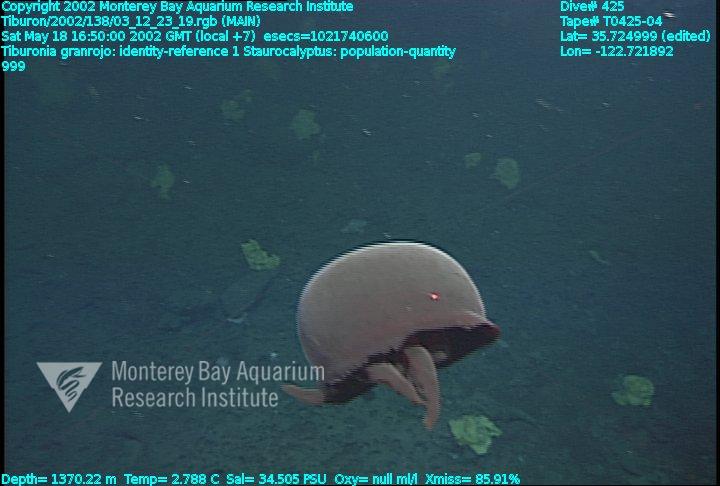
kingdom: Animalia
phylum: Porifera
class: Hexactinellida
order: Lyssacinosida
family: Rossellidae
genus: Staurocalyptus
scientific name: Staurocalyptus
